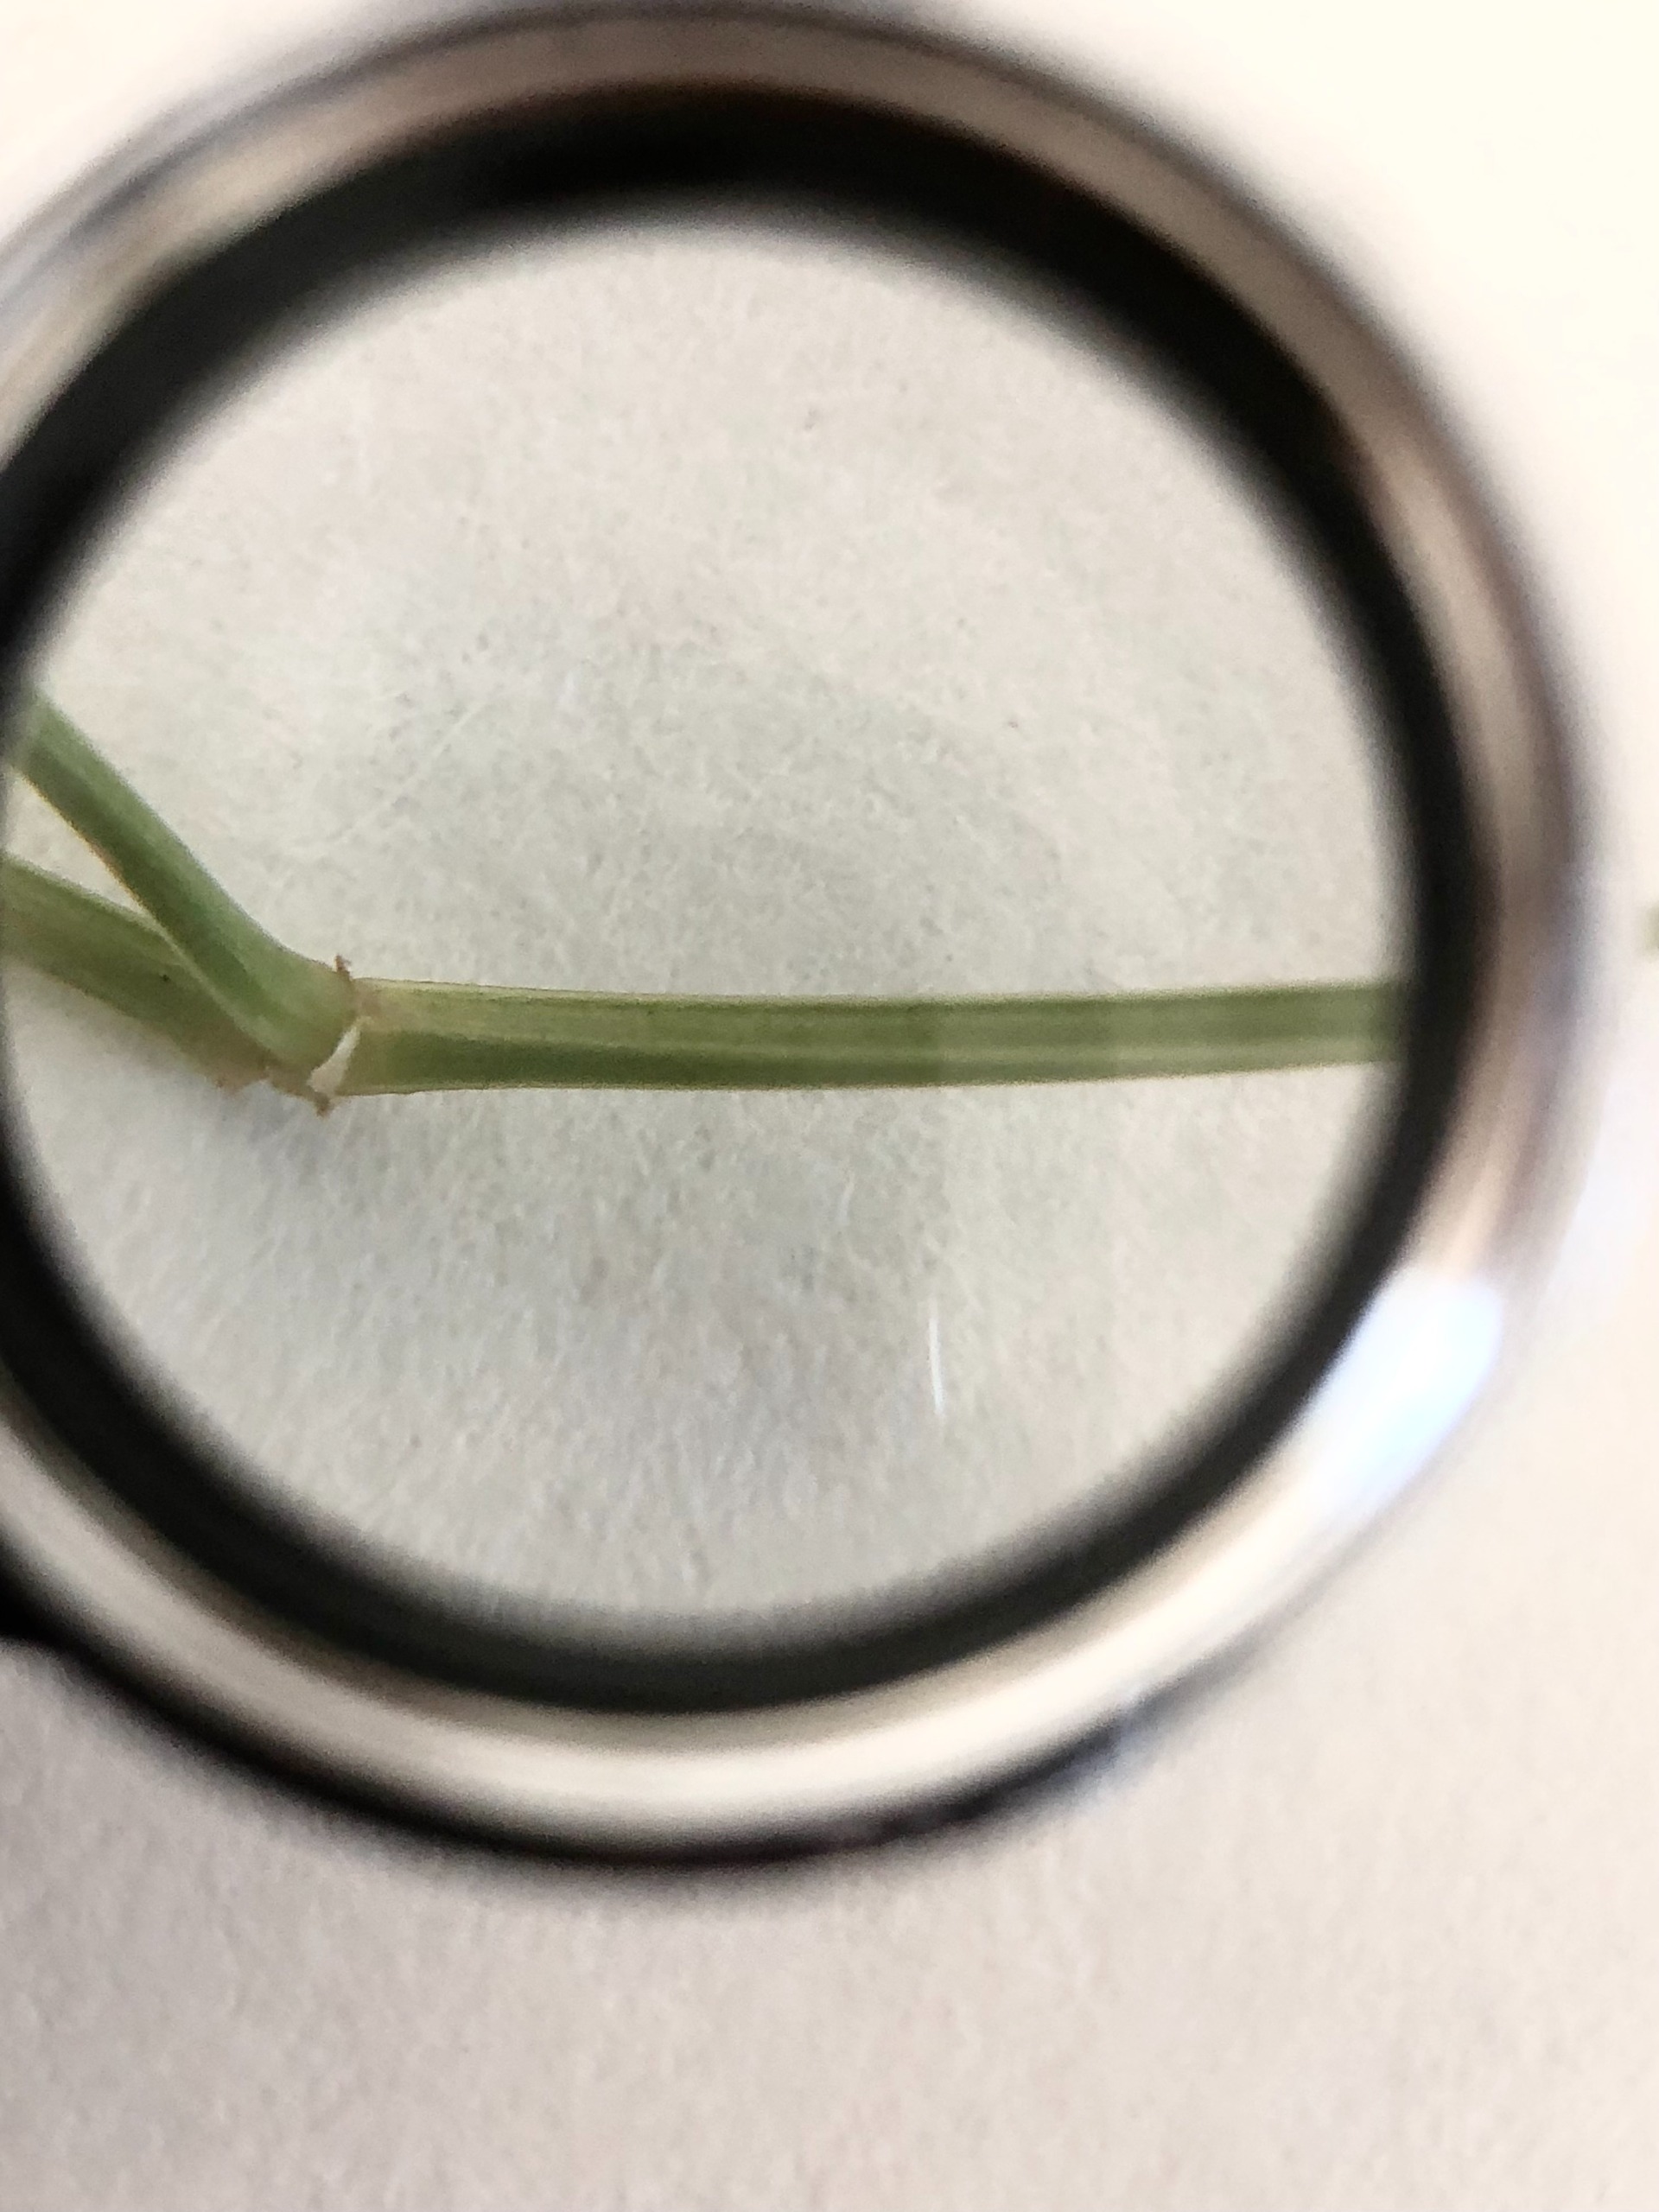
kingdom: Plantae
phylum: Tracheophyta
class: Magnoliopsida
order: Caryophyllales
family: Caryophyllaceae
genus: Stellaria
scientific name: Stellaria graminea
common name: Græsbladet fladstjerne
